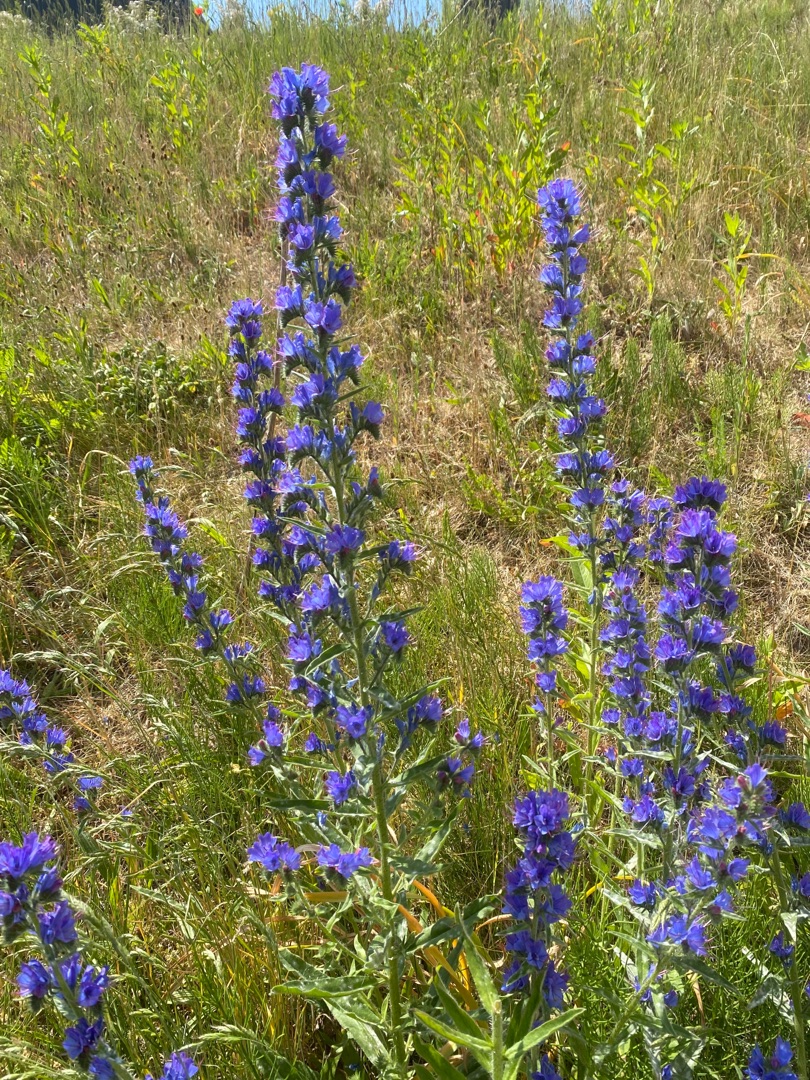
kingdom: Plantae
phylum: Tracheophyta
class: Magnoliopsida
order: Boraginales
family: Boraginaceae
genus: Echium
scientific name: Echium vulgare
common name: Slangehoved
